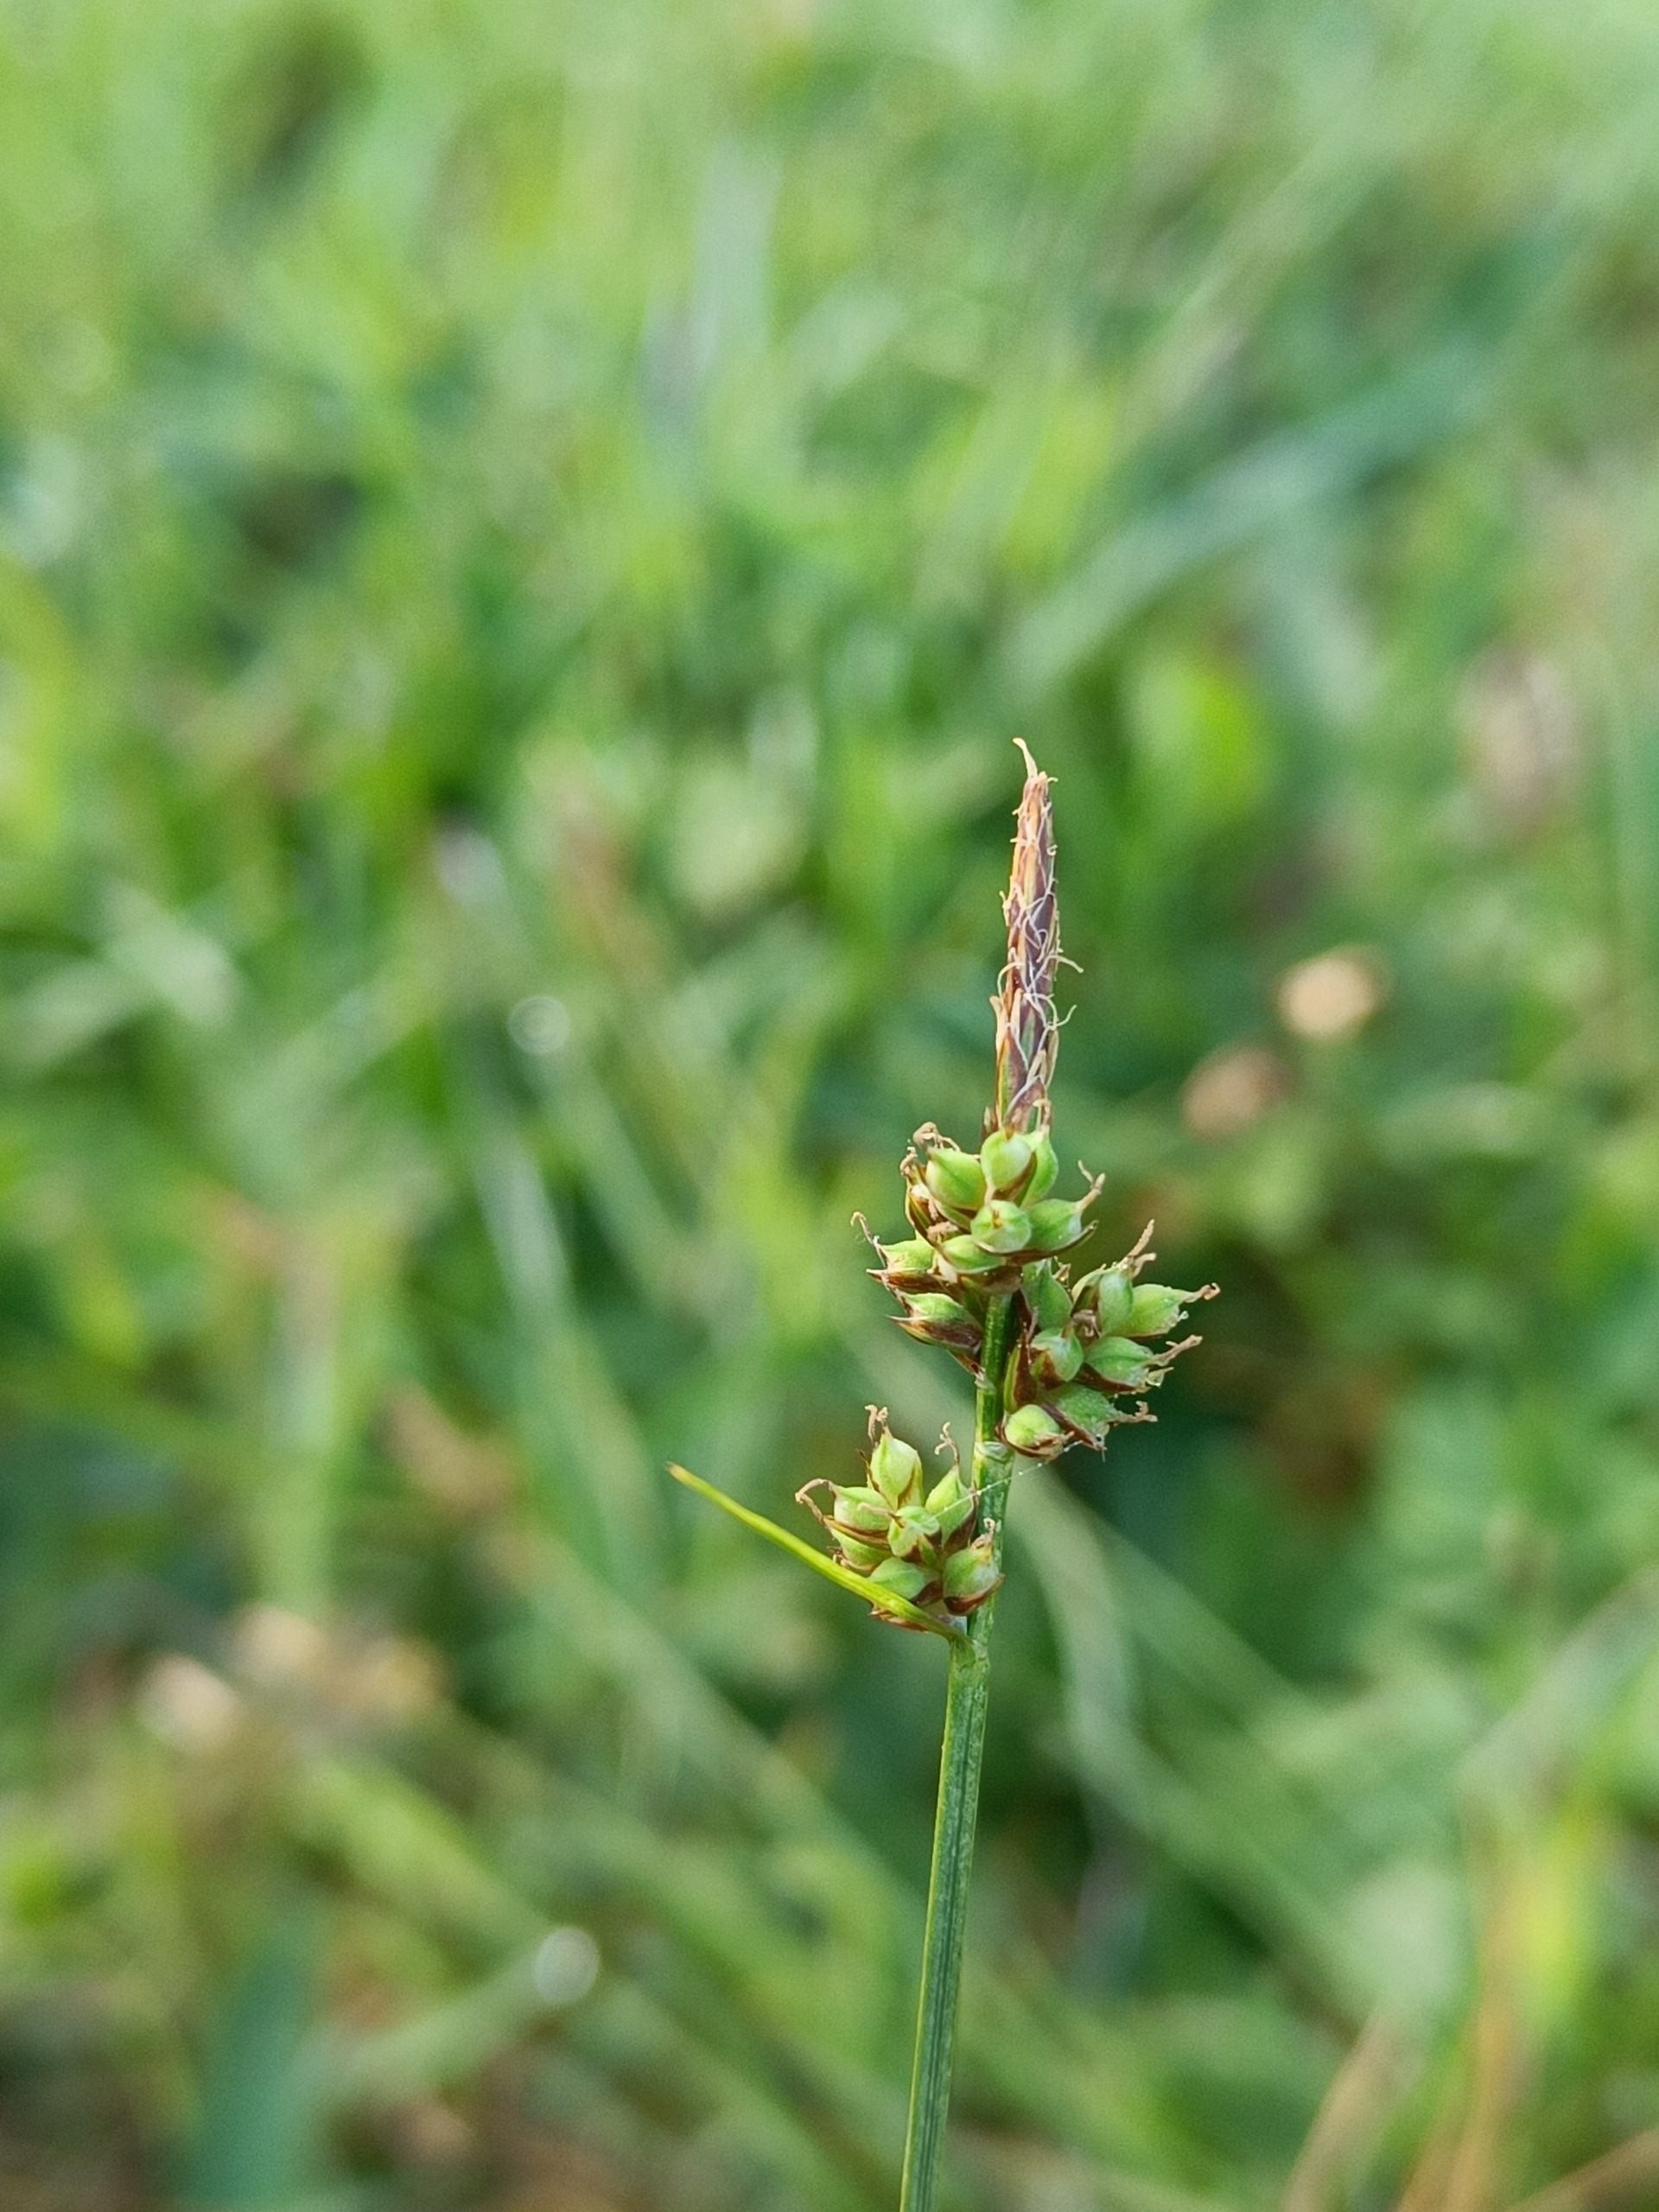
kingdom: Plantae
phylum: Tracheophyta
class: Liliopsida
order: Poales
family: Cyperaceae
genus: Carex
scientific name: Carex pilulifera
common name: Pille-star
